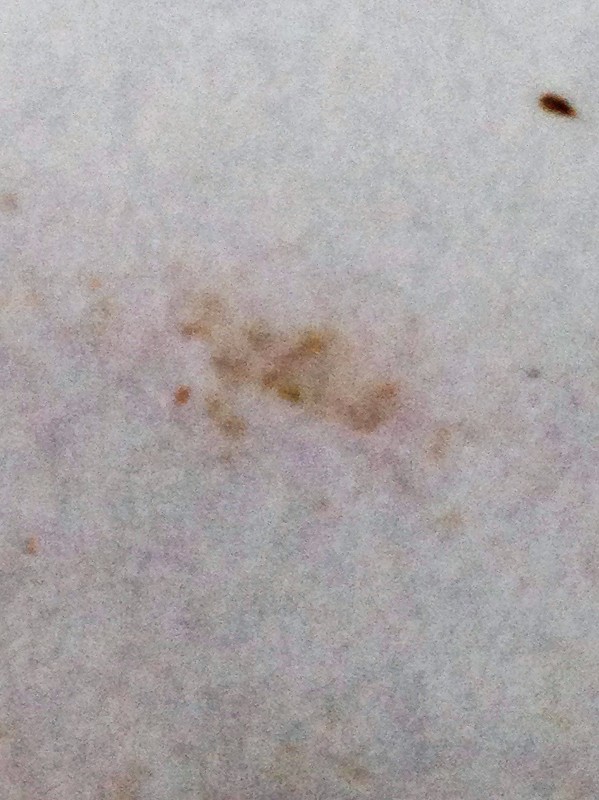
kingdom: Fungi
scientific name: Fungi
